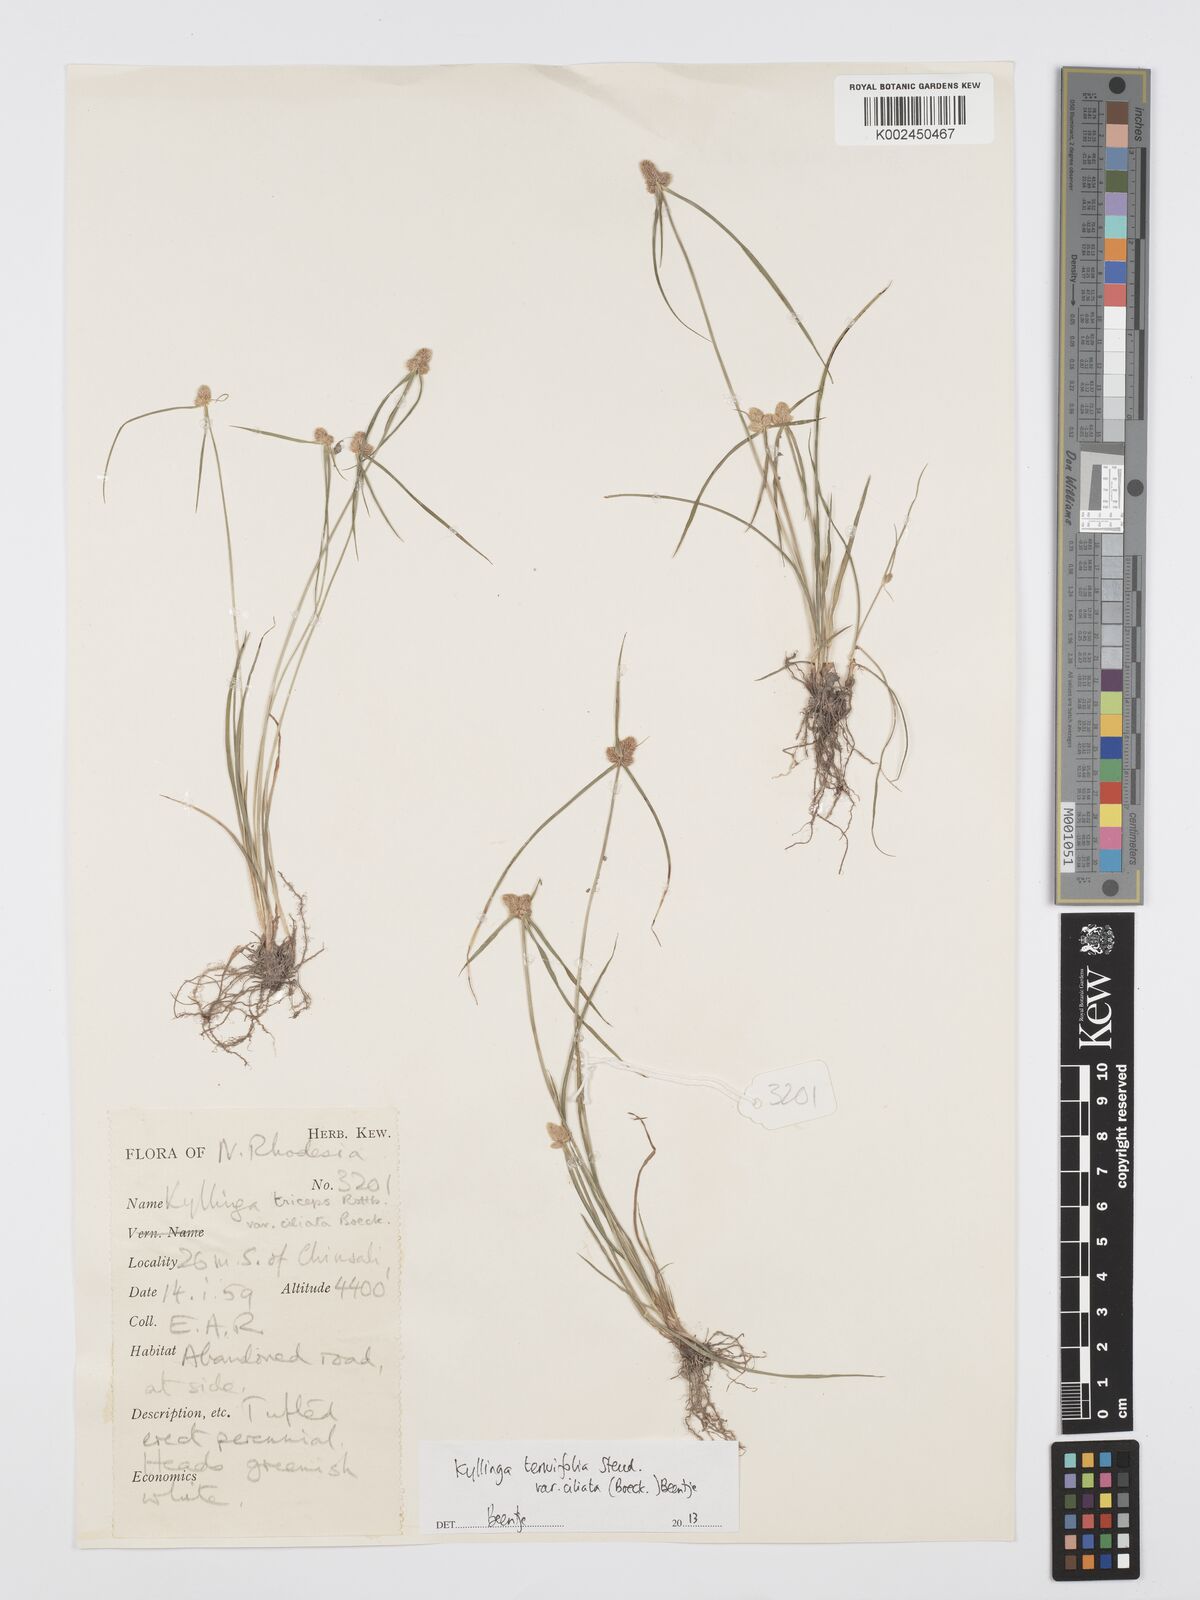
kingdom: Plantae
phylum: Tracheophyta
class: Liliopsida
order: Poales
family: Cyperaceae
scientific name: Cyperaceae
